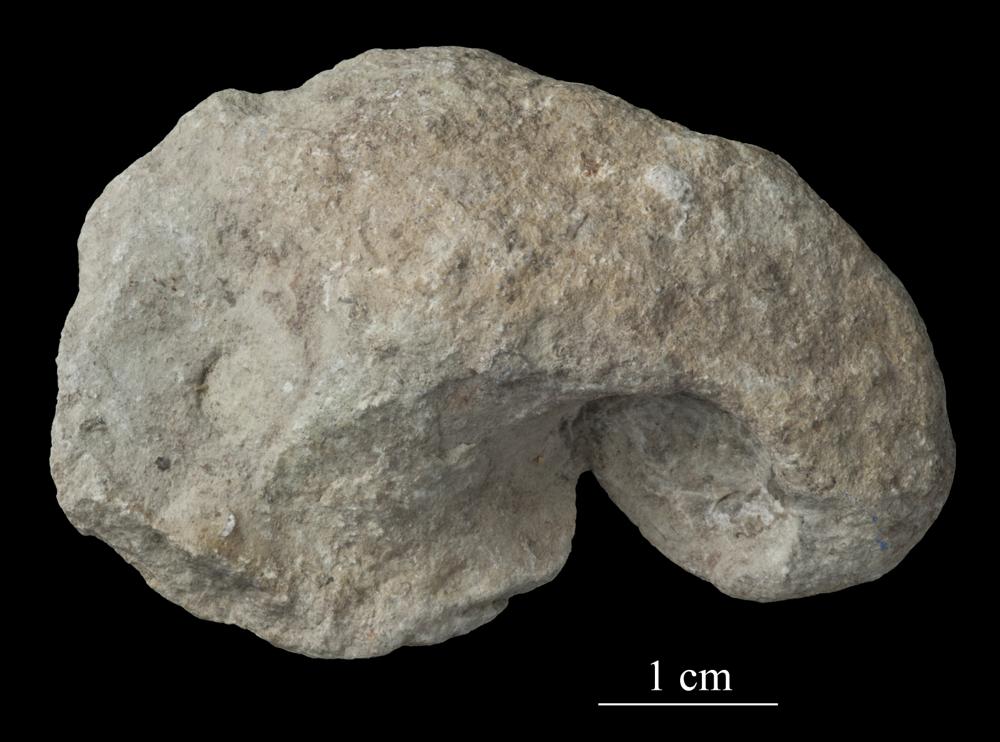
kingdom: Animalia
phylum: Mollusca
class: Gastropoda
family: Bellerophontidae
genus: Bellerophon
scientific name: Bellerophon
